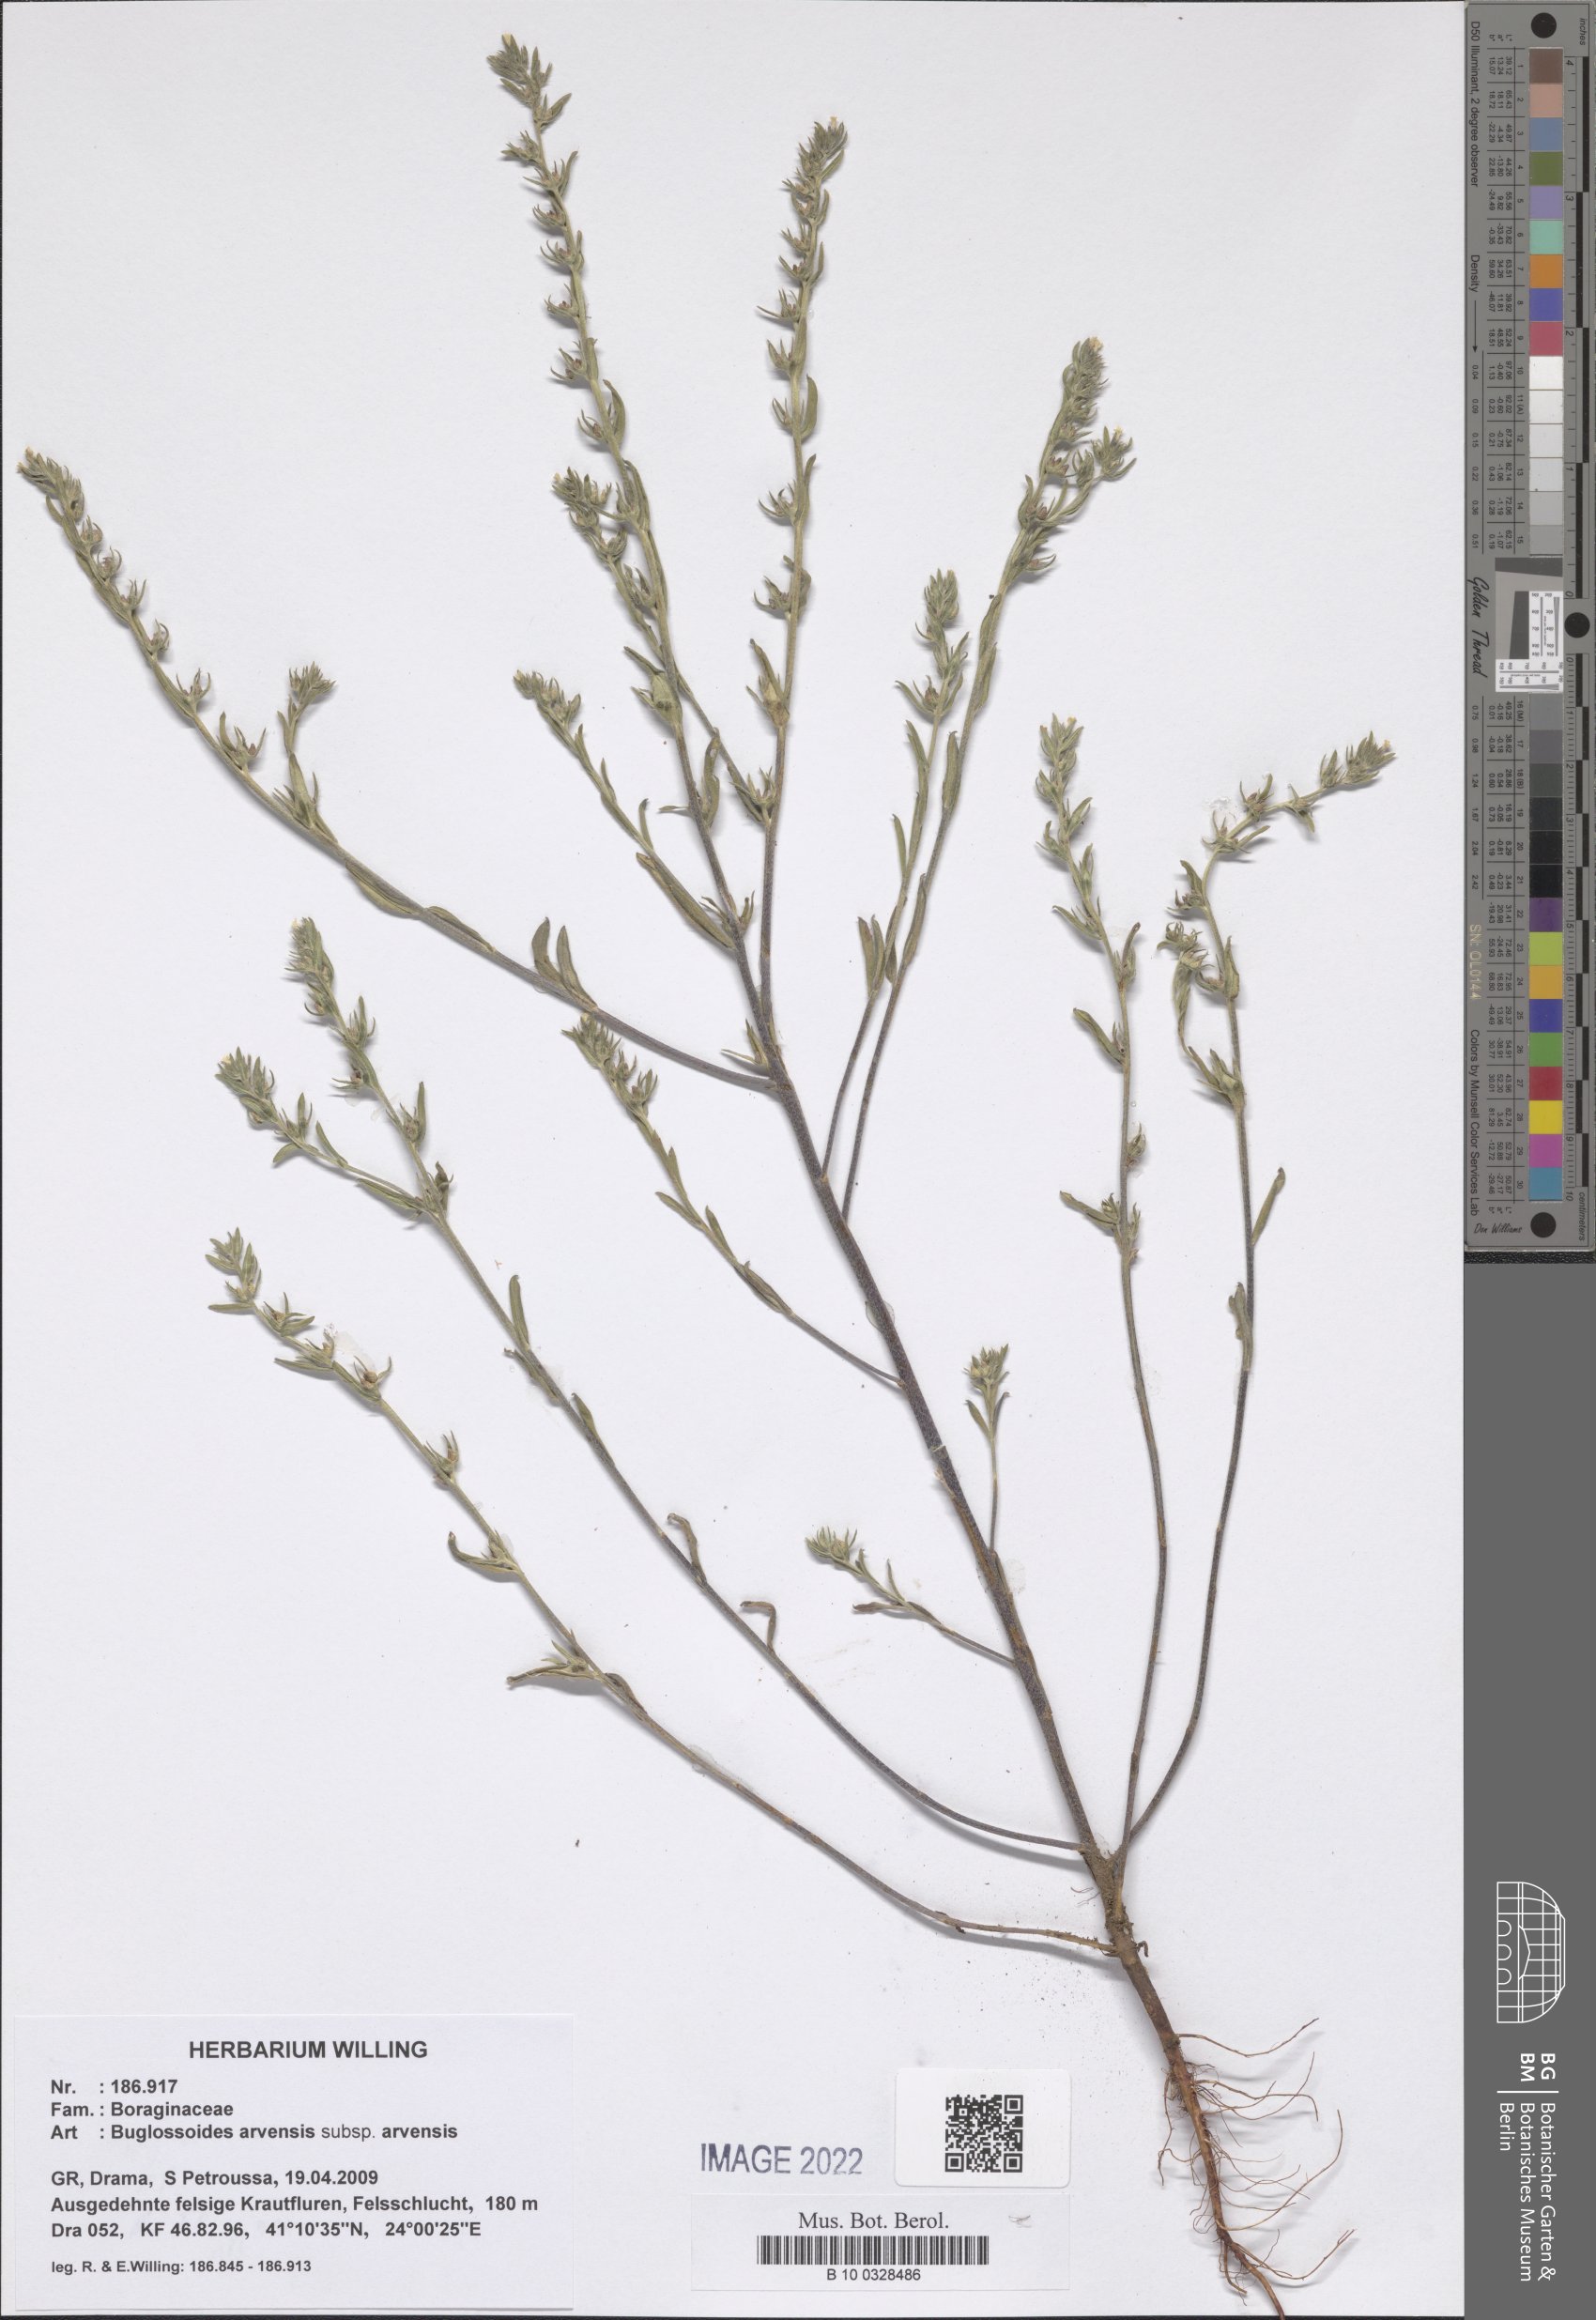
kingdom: Plantae
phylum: Tracheophyta
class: Magnoliopsida
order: Boraginales
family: Boraginaceae
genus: Buglossoides
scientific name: Buglossoides arvensis
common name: Corn gromwell
